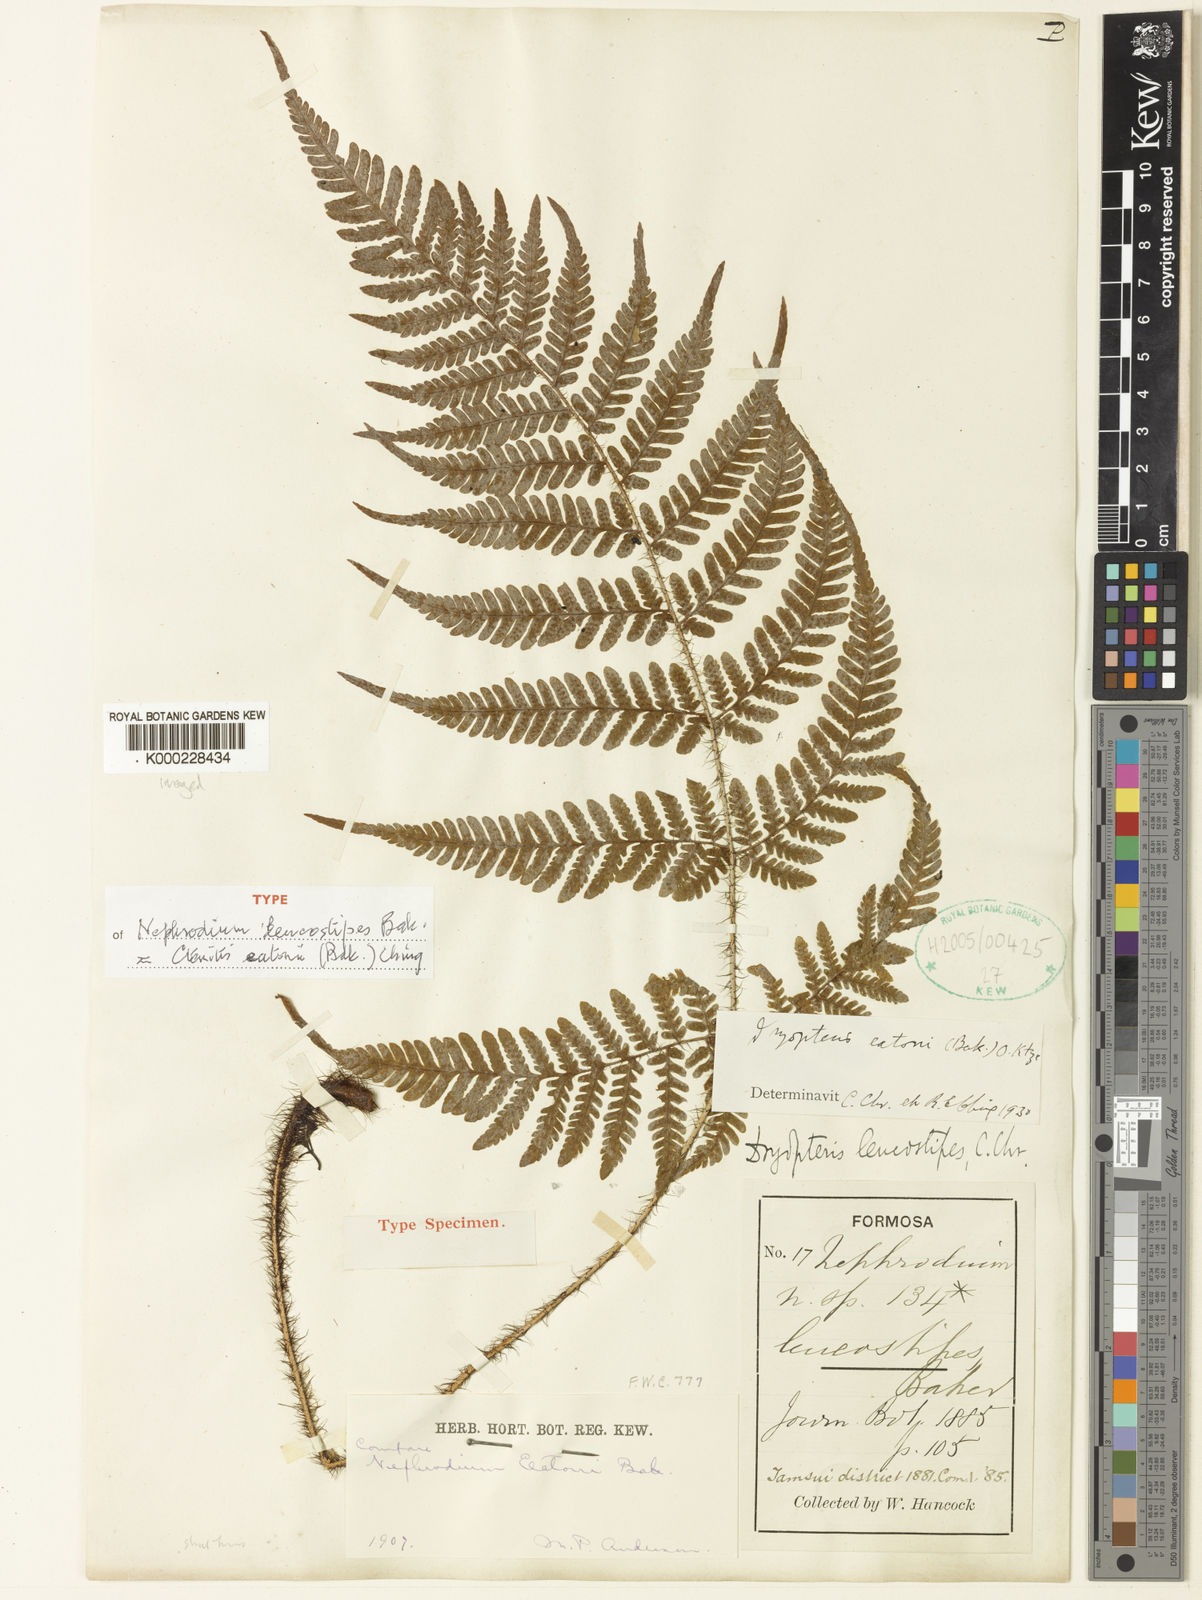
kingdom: Plantae
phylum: Tracheophyta
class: Polypodiopsida
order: Polypodiales
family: Dryopteridaceae
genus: Ctenitis
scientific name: Ctenitis eatonii
